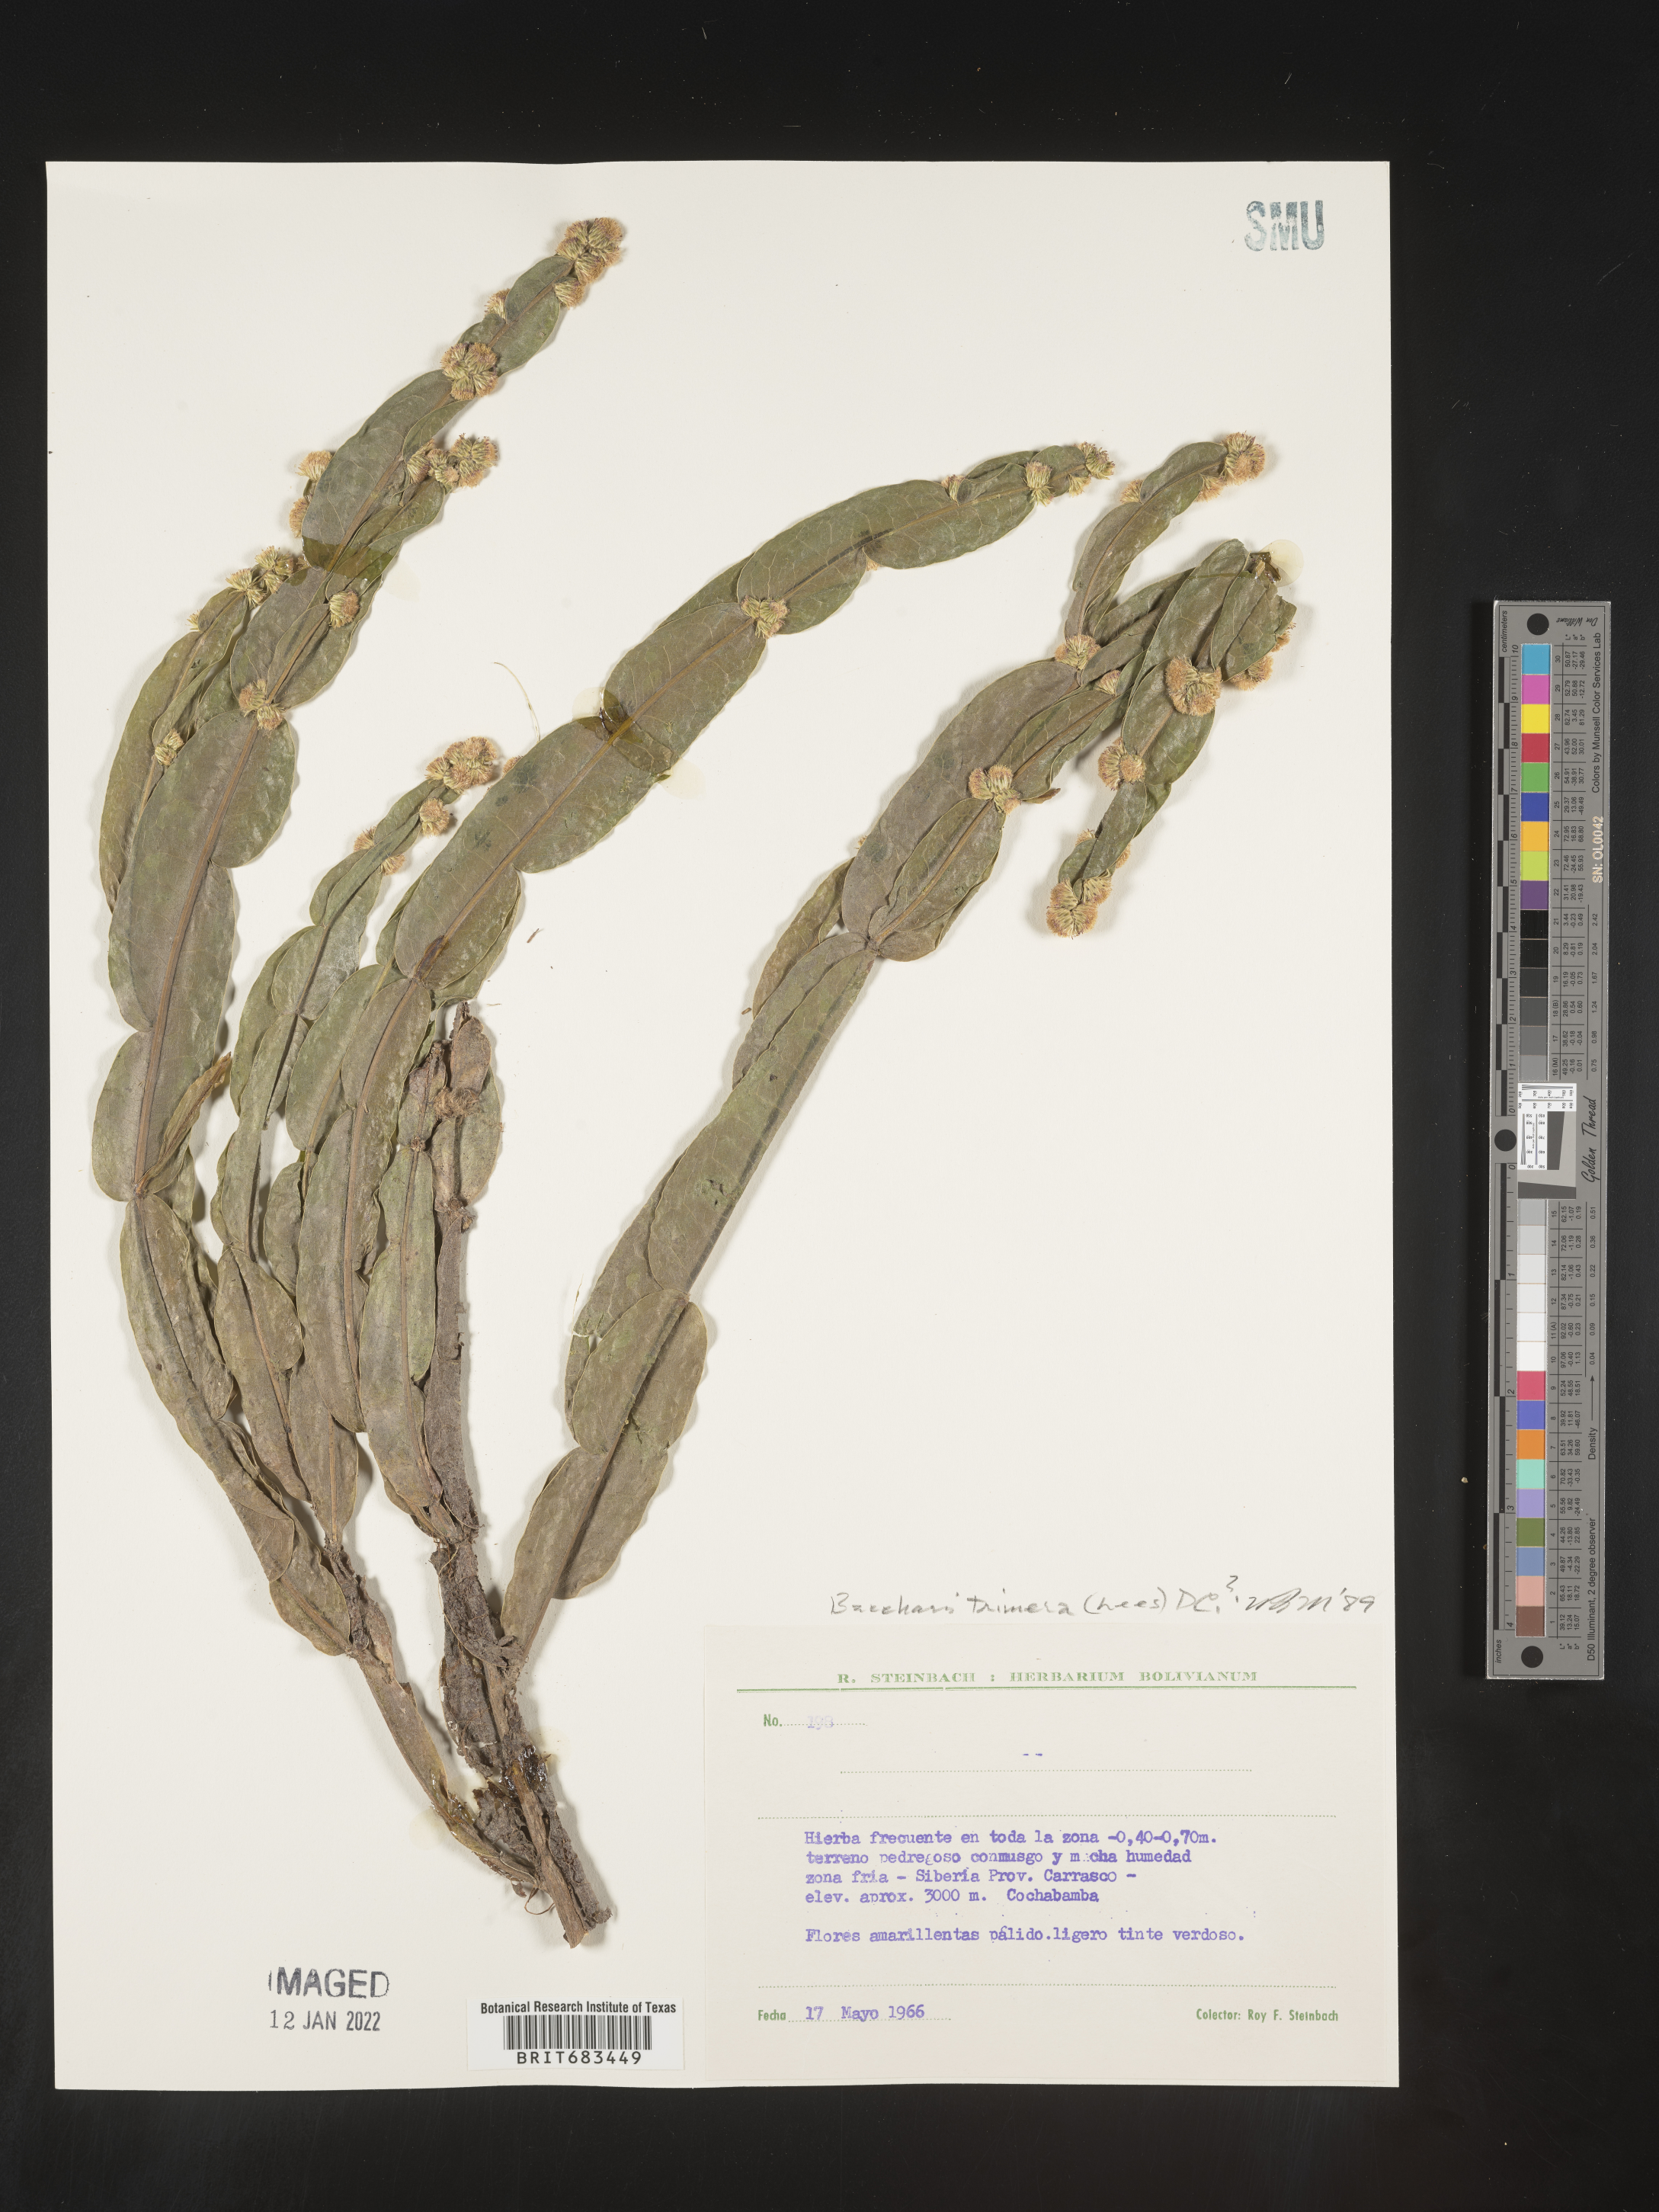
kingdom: Plantae
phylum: Tracheophyta
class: Magnoliopsida
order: Asterales
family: Asteraceae
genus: Baccharis
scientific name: Baccharis
